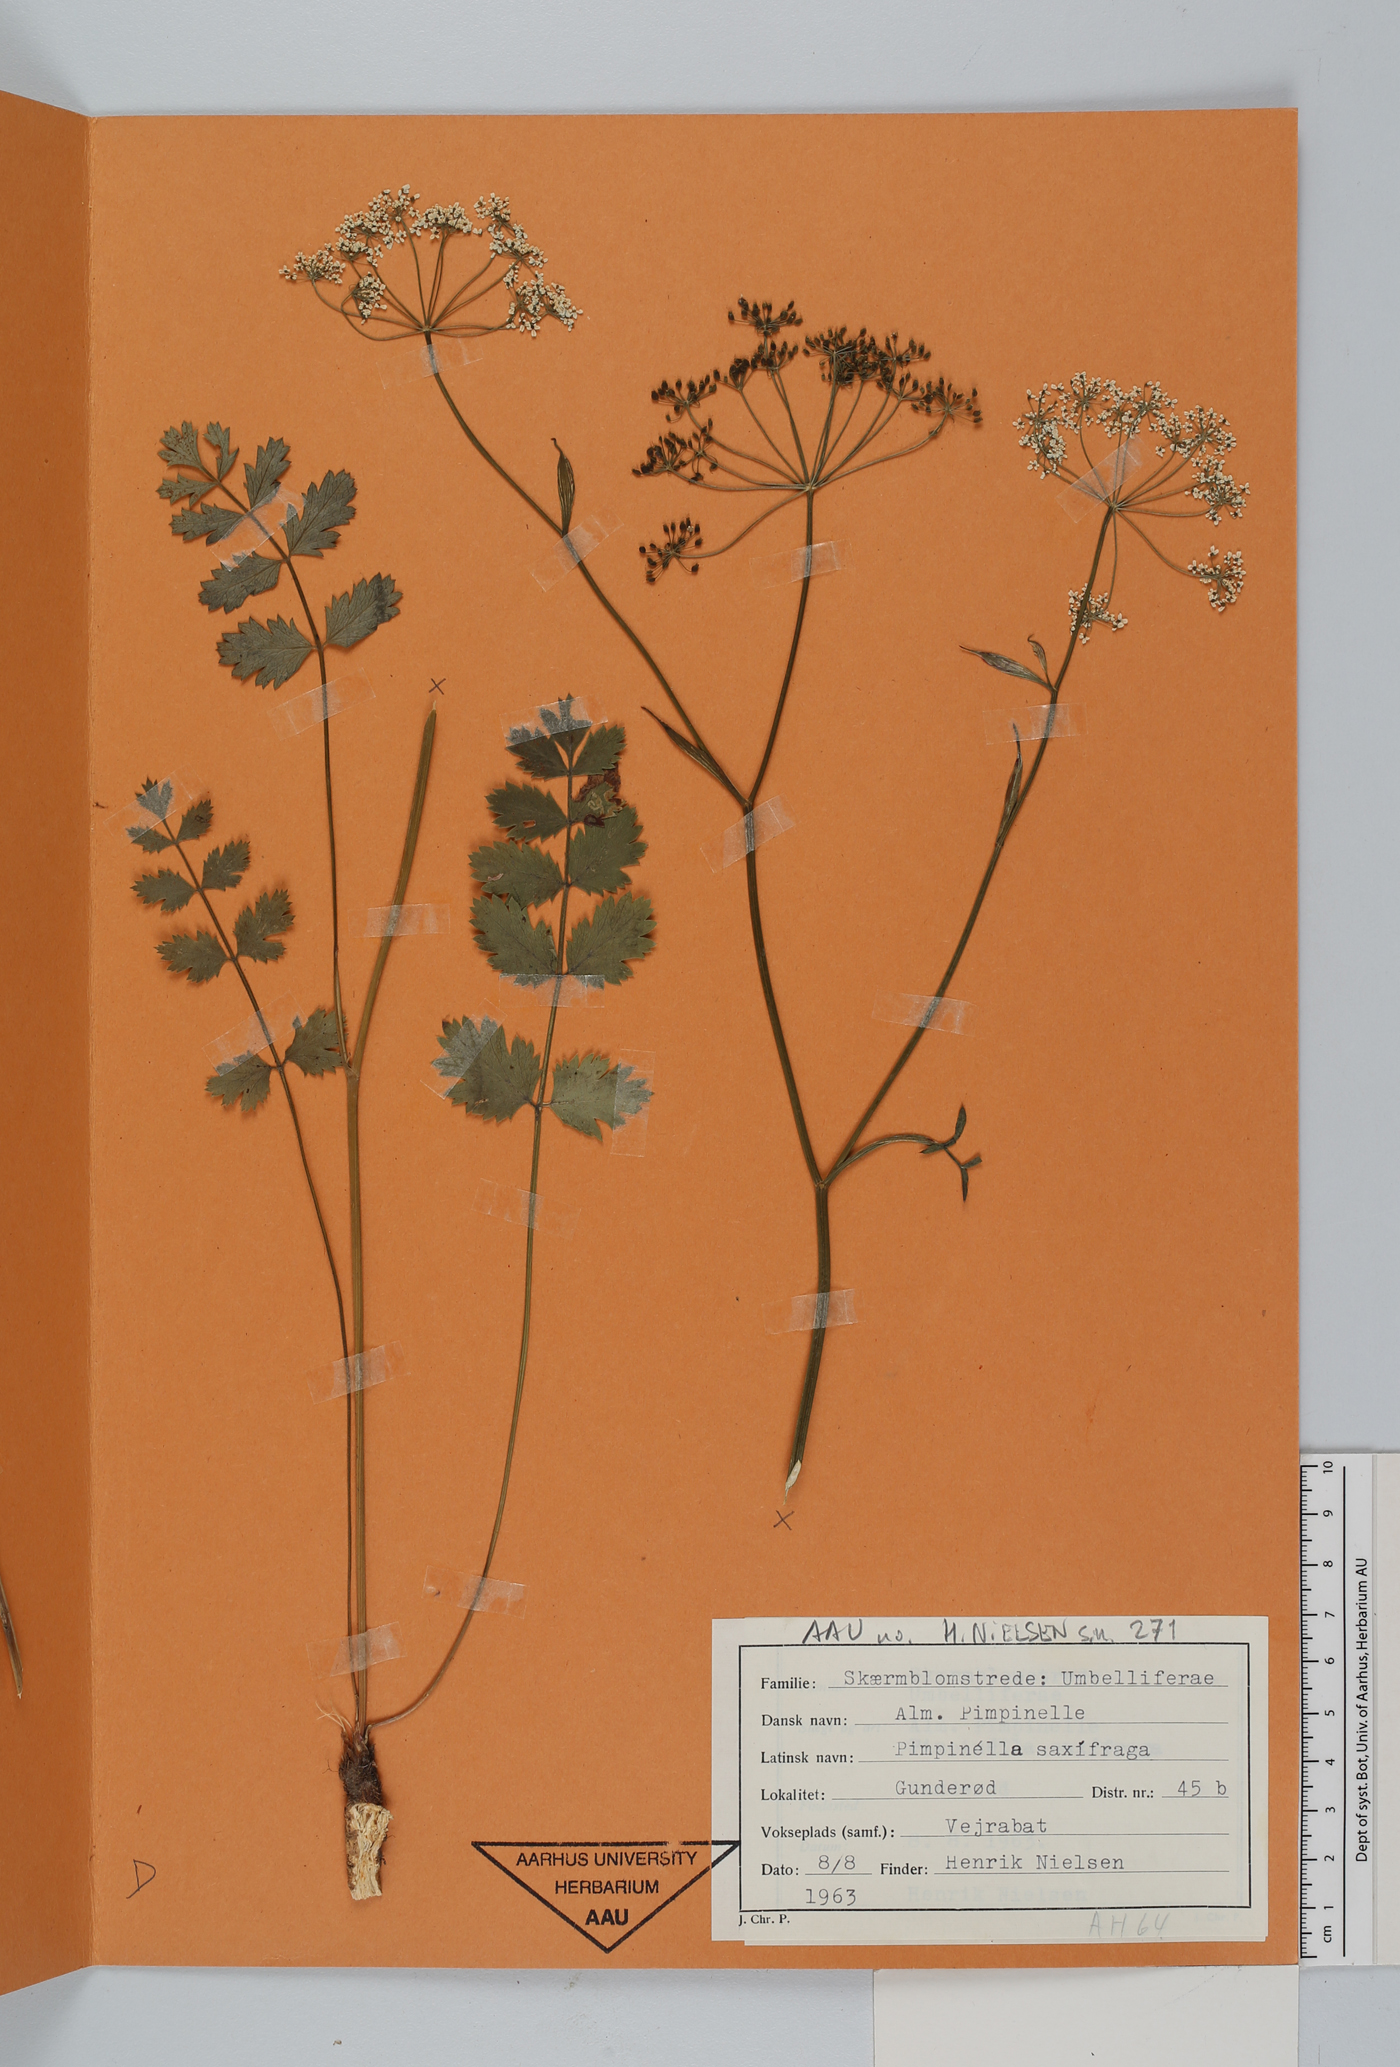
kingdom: Plantae
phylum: Tracheophyta
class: Magnoliopsida
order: Apiales
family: Apiaceae
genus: Pimpinella
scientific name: Pimpinella saxifraga
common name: Burnet-saxifrage
